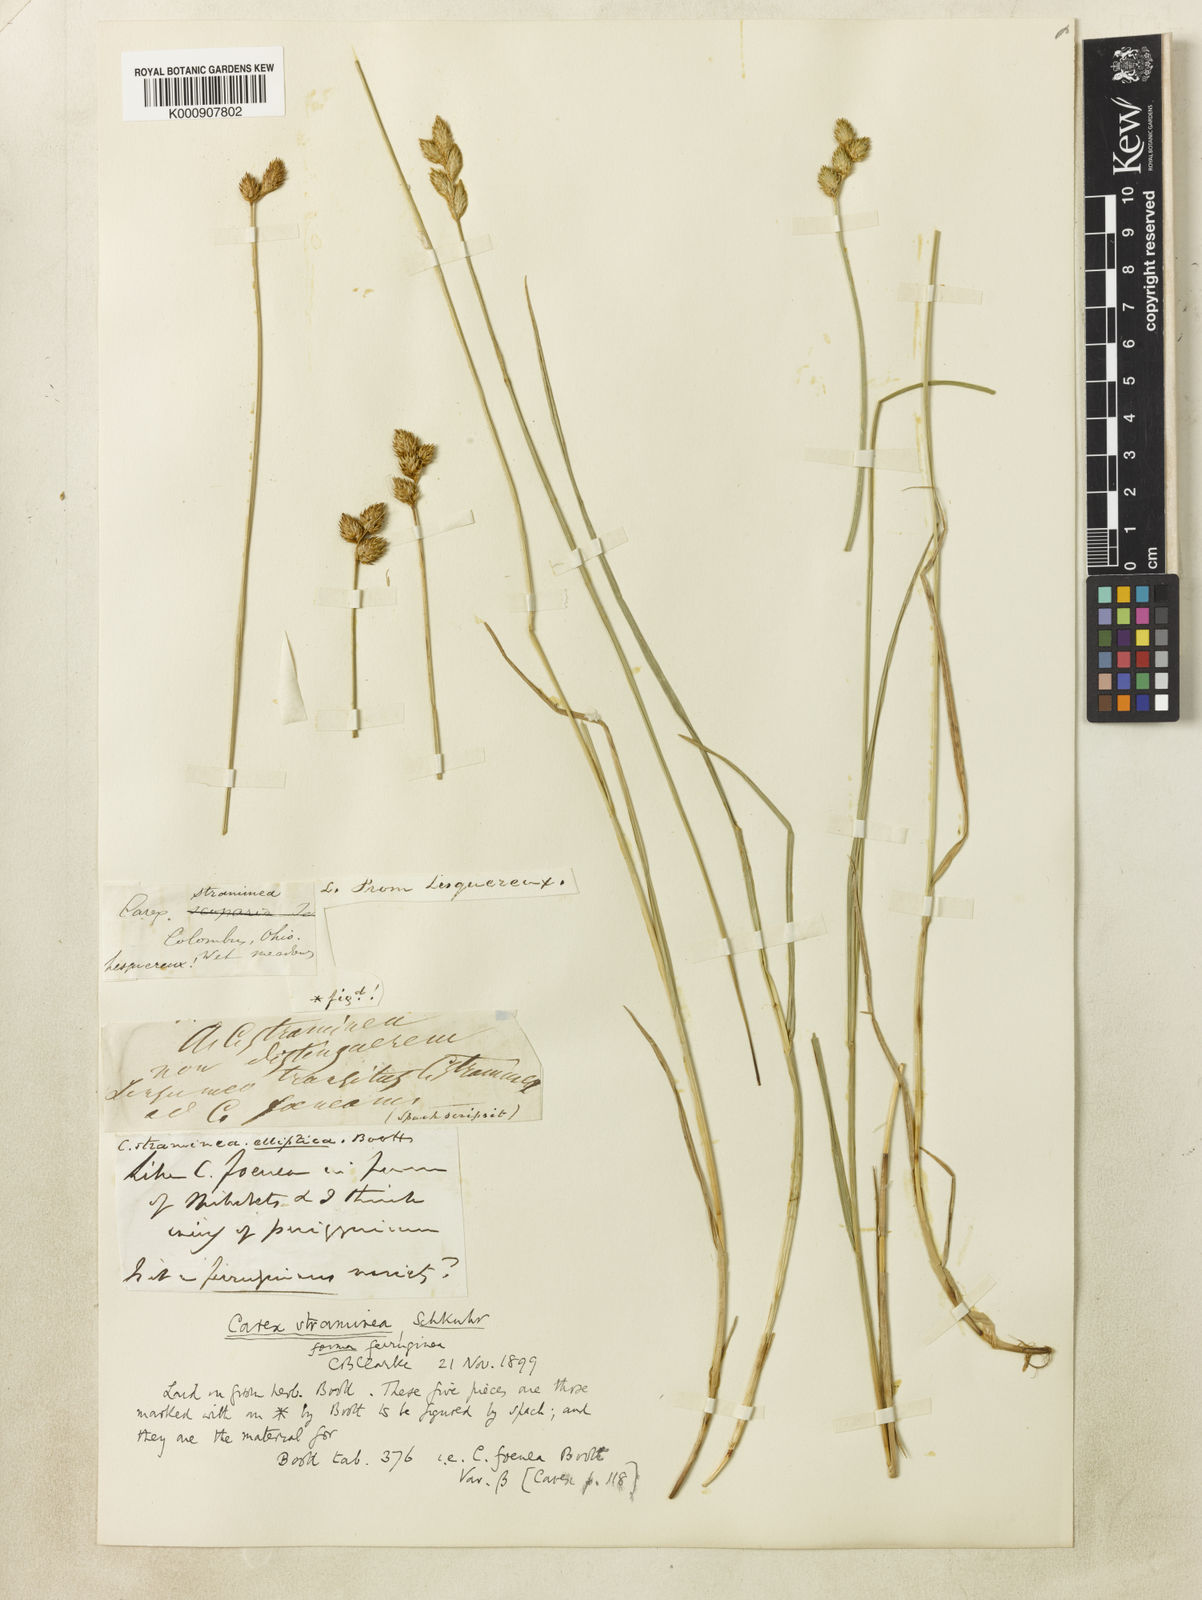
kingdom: Plantae
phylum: Tracheophyta
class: Liliopsida
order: Poales
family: Cyperaceae
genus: Carex
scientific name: Carex subrecta
